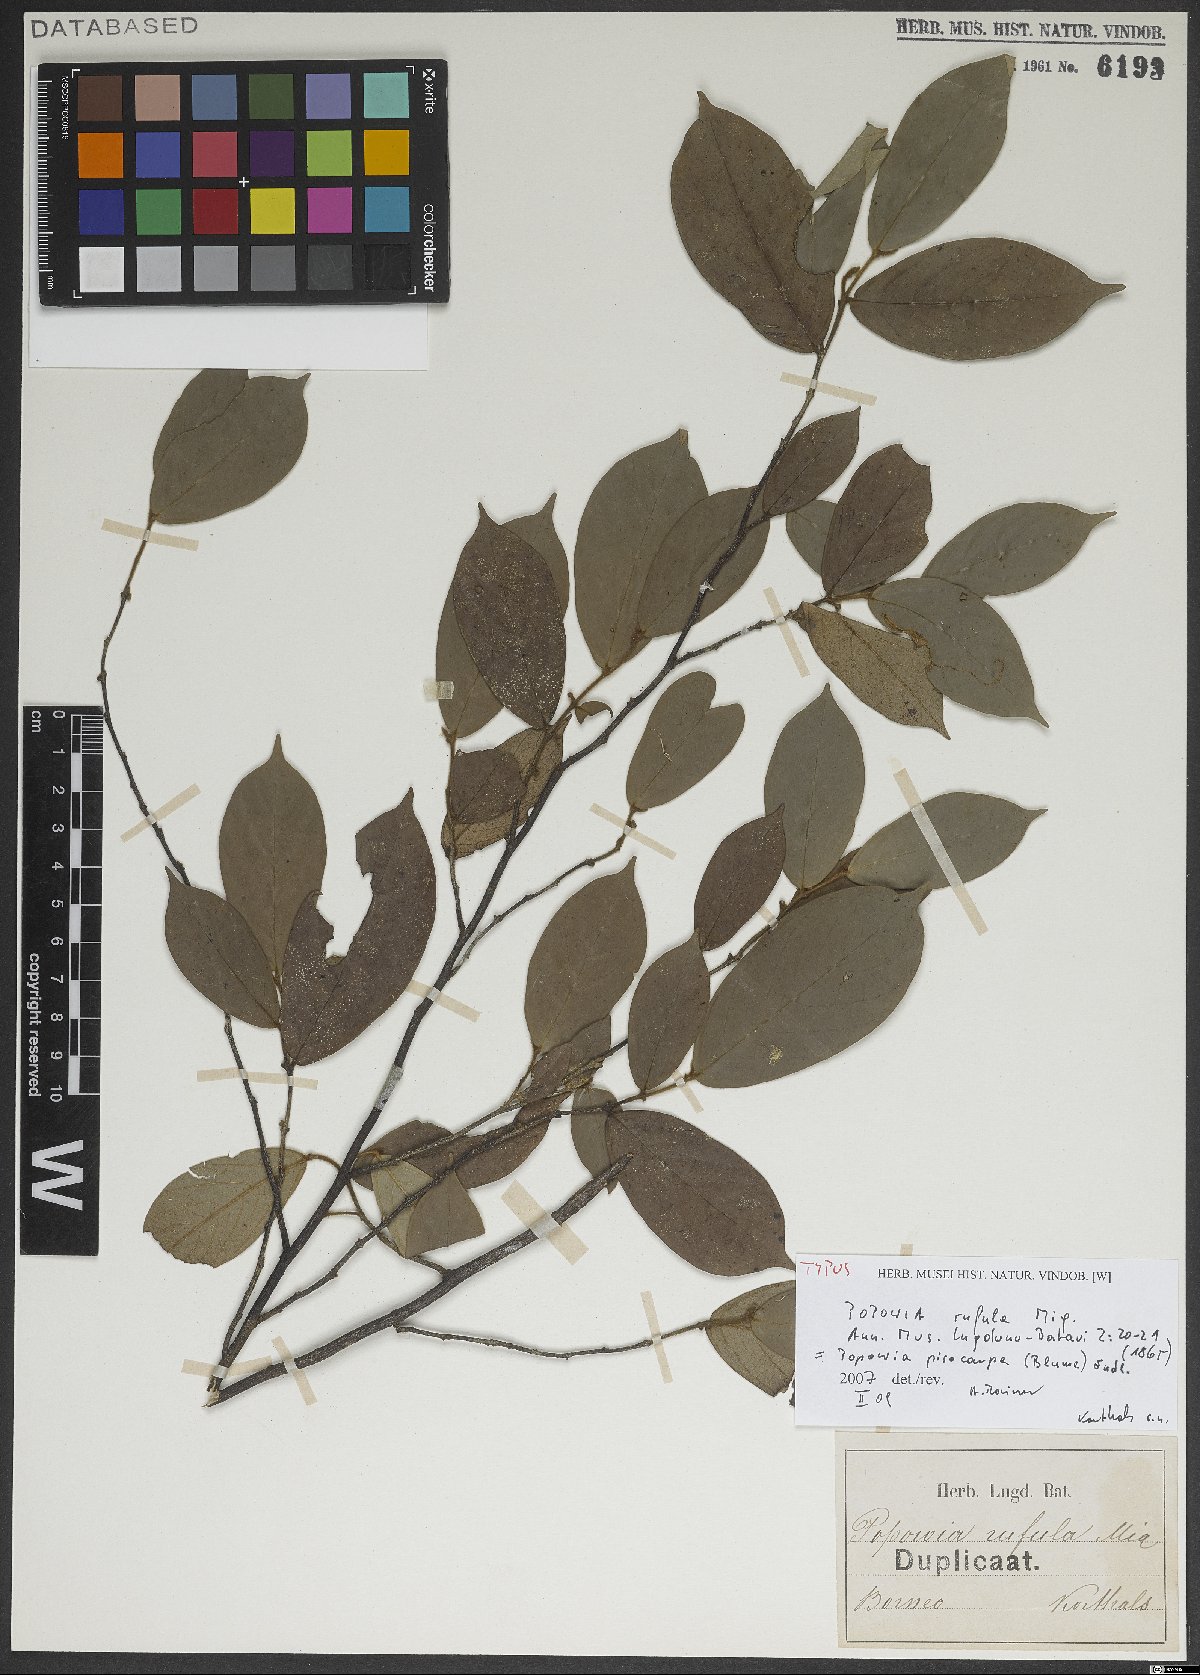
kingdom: Plantae
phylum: Tracheophyta
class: Magnoliopsida
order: Magnoliales
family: Annonaceae
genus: Popowia
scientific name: Popowia pisocarpa
